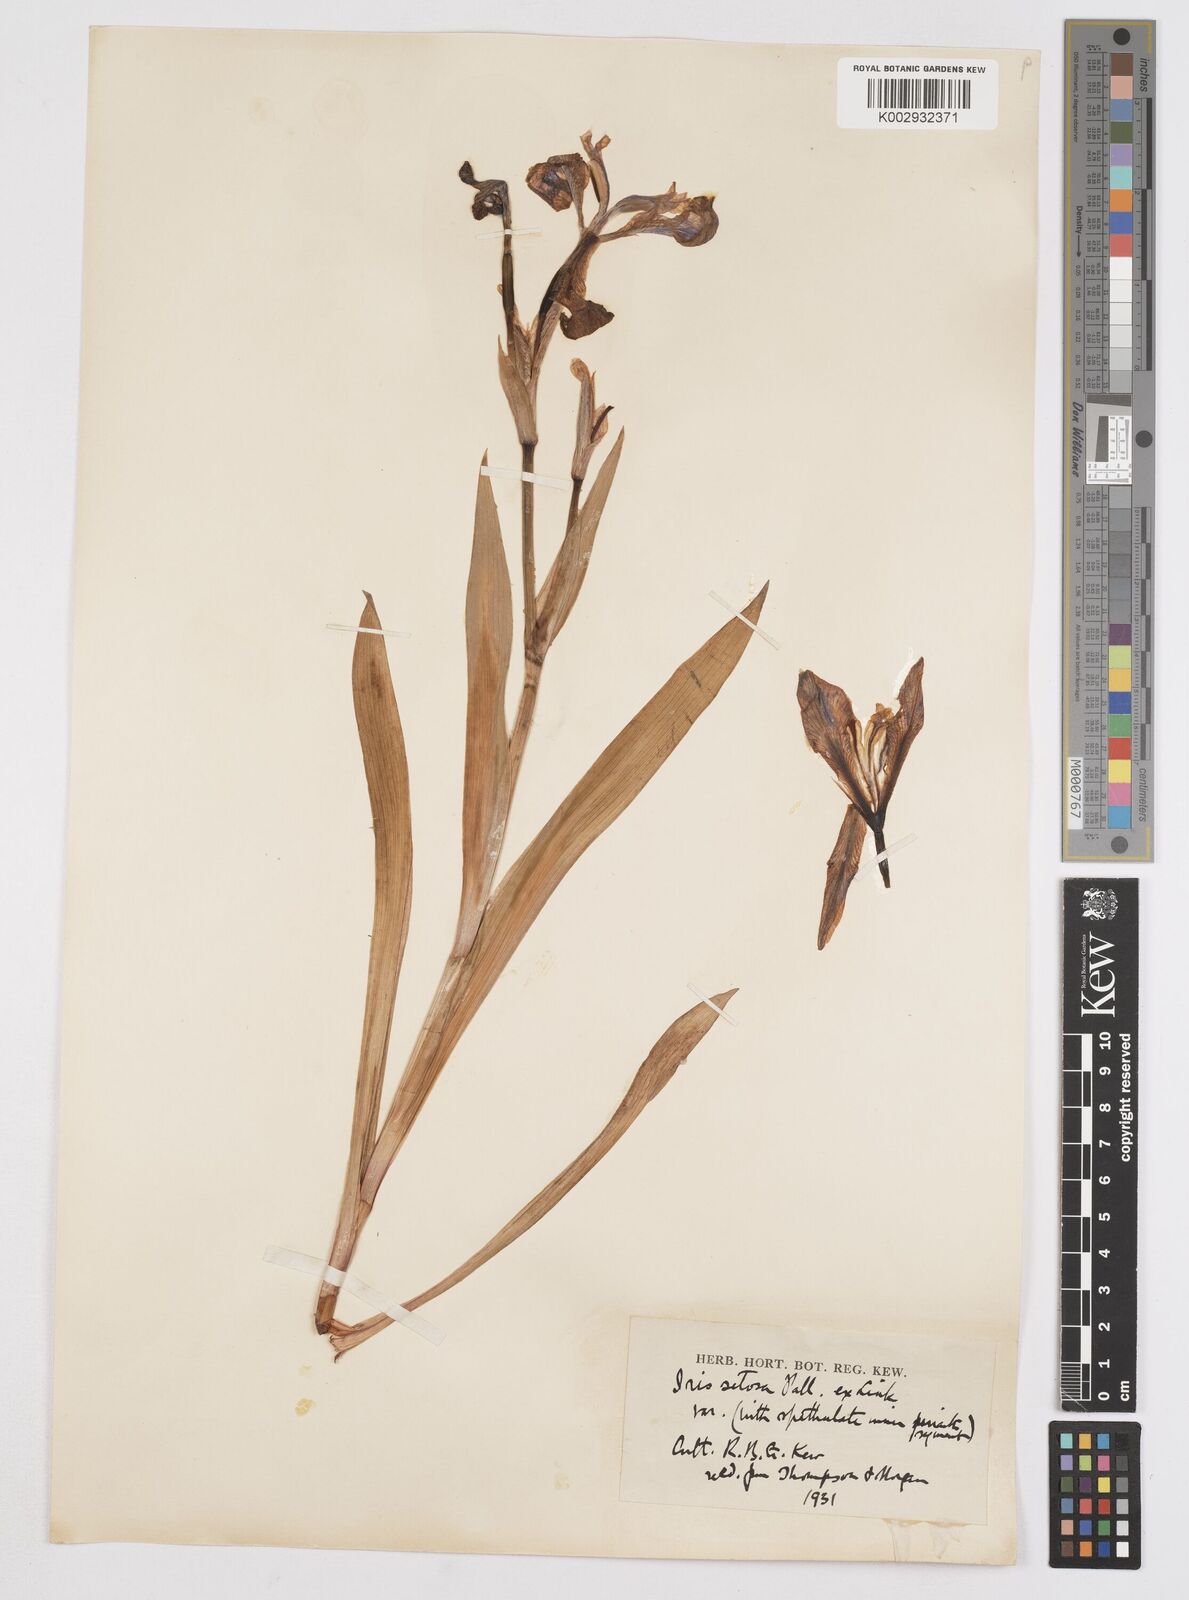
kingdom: Plantae
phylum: Tracheophyta
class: Liliopsida
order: Asparagales
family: Iridaceae
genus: Iris
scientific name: Iris setosa
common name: Arctic blue flag
